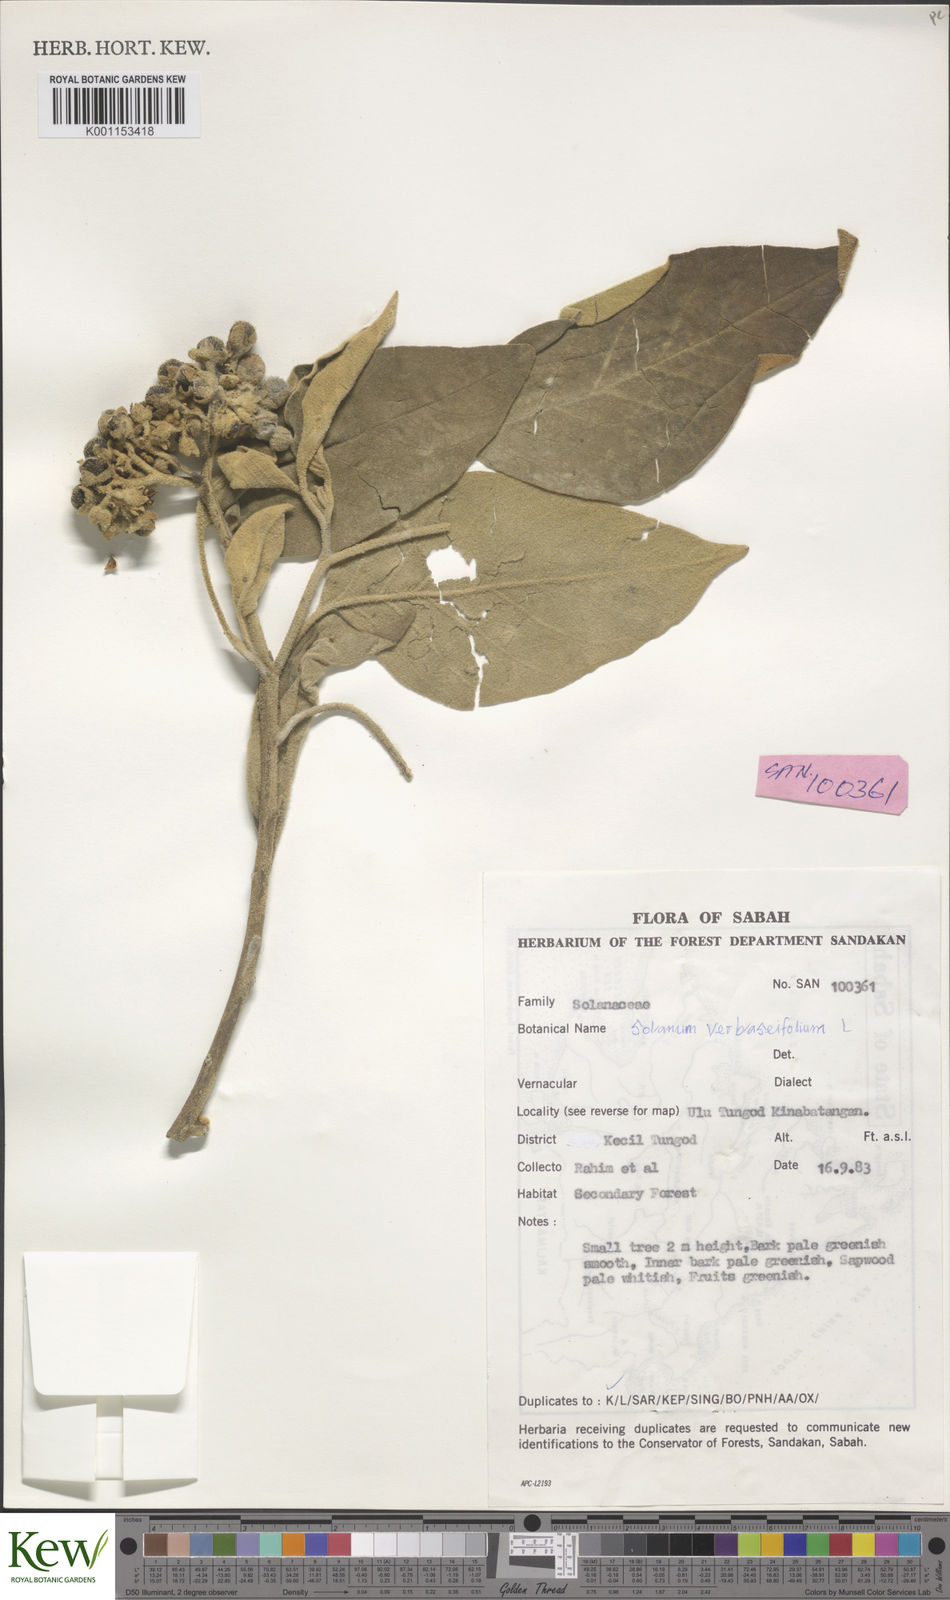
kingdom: Plantae
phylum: Tracheophyta
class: Magnoliopsida
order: Solanales
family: Solanaceae
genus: Solanum
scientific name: Solanum erianthum
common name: Tobacco-tree
